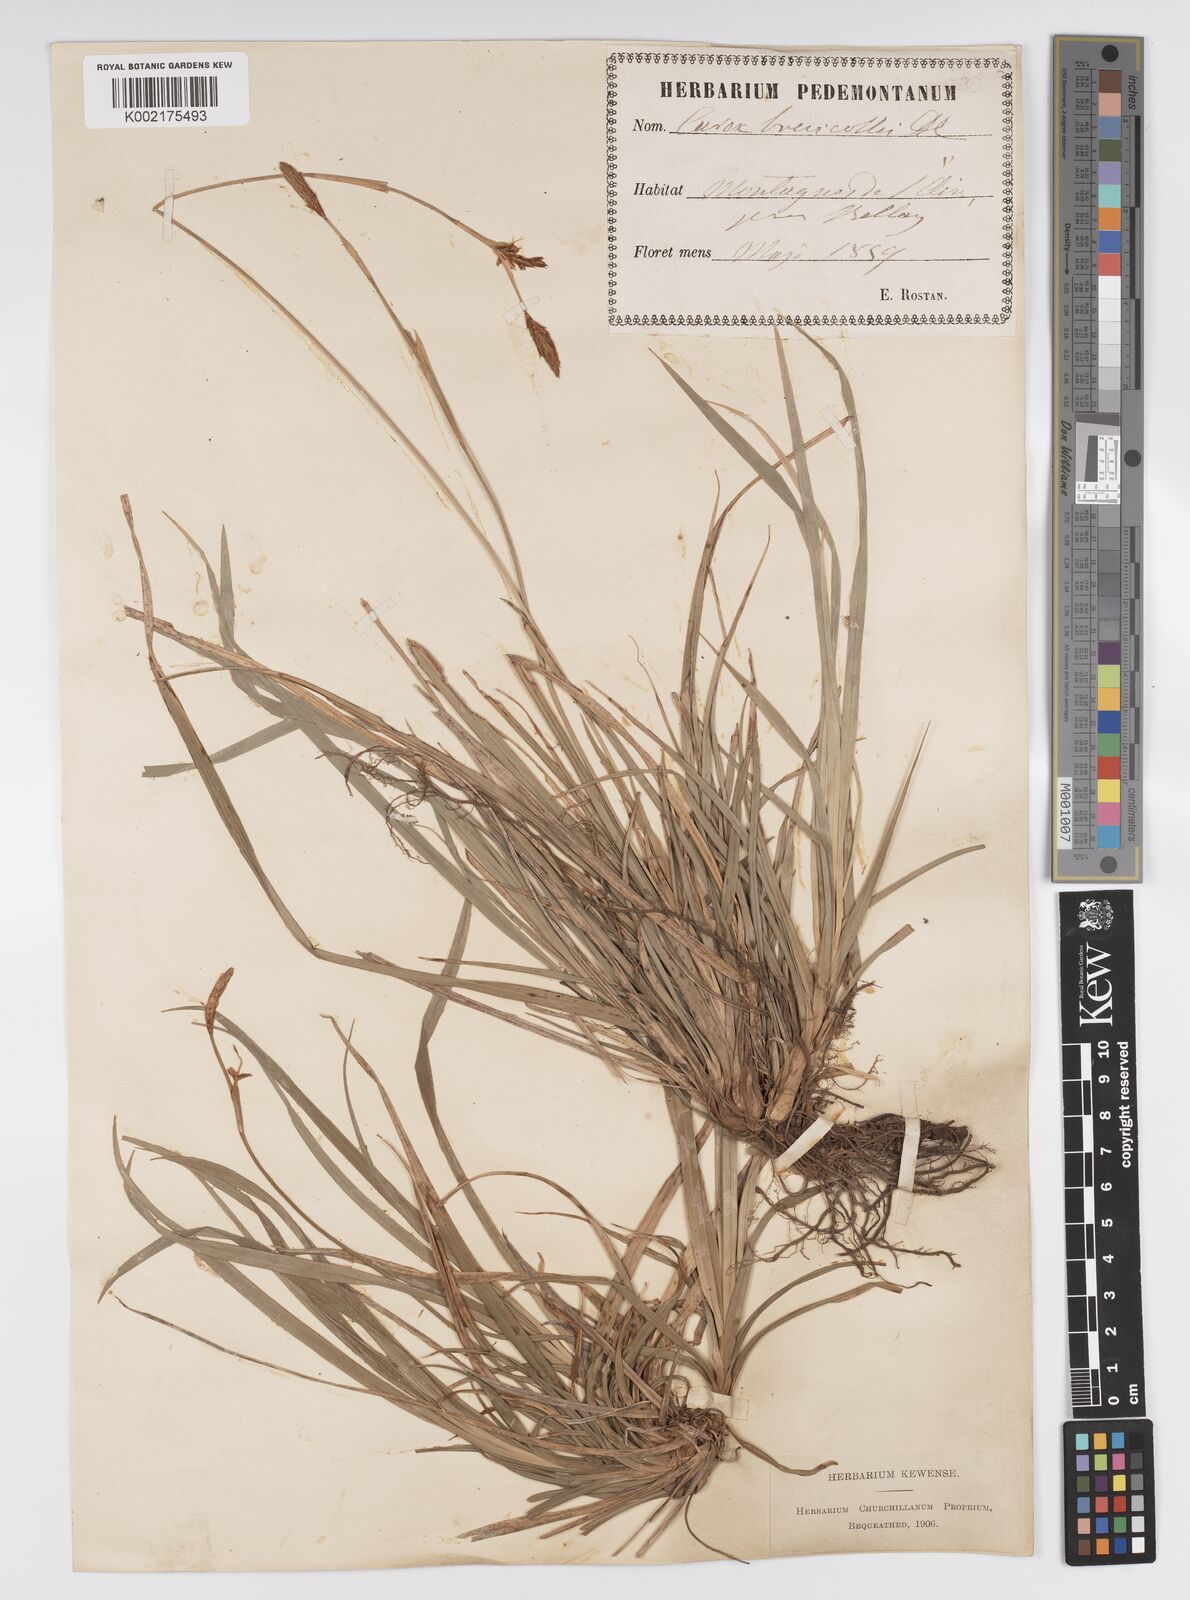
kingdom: Plantae
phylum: Tracheophyta
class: Liliopsida
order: Poales
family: Cyperaceae
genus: Carex
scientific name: Carex brevicollis
